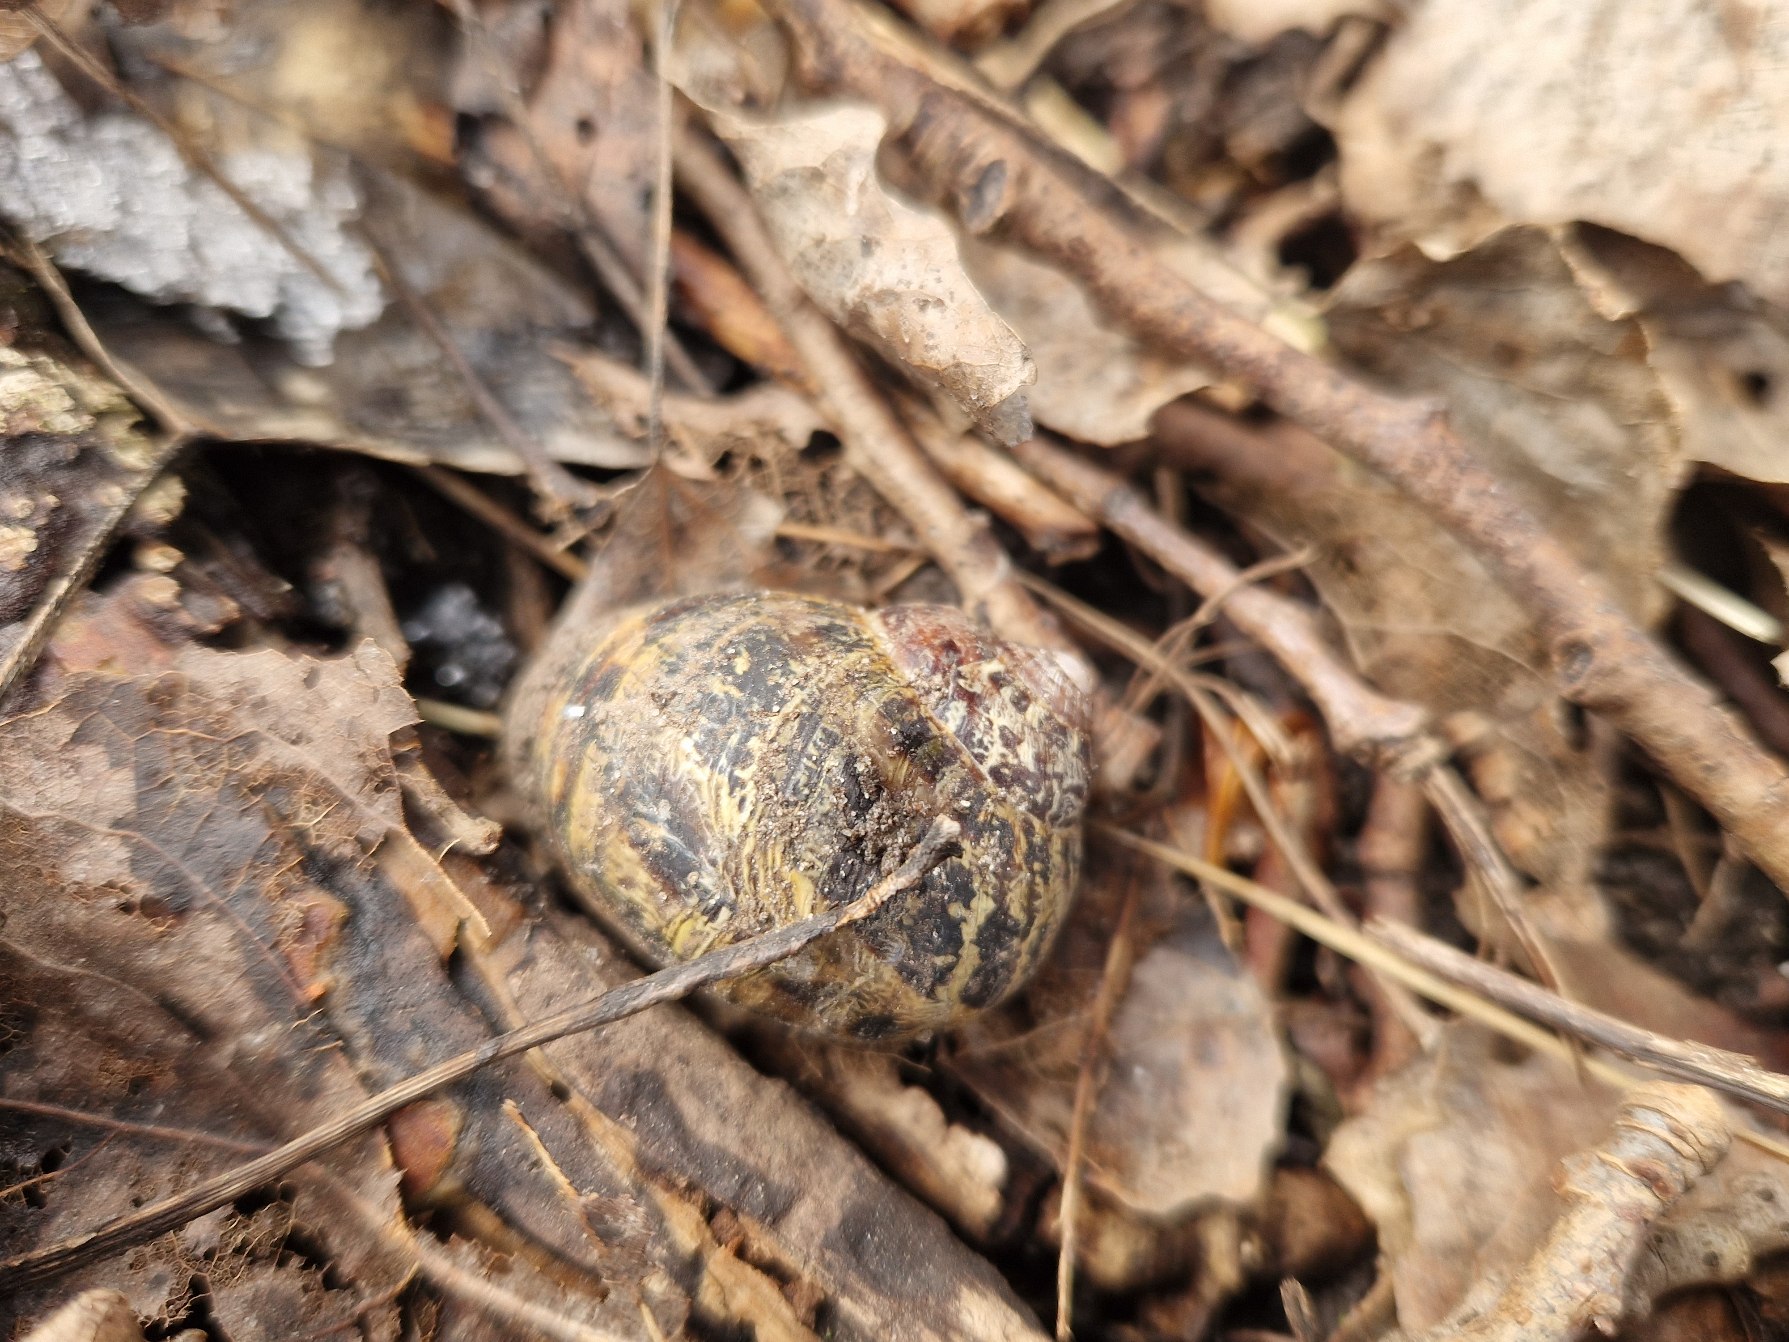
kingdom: Animalia
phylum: Mollusca
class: Gastropoda
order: Stylommatophora
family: Helicidae
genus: Cornu
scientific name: Cornu aspersum
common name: Plettet voldsnegl
